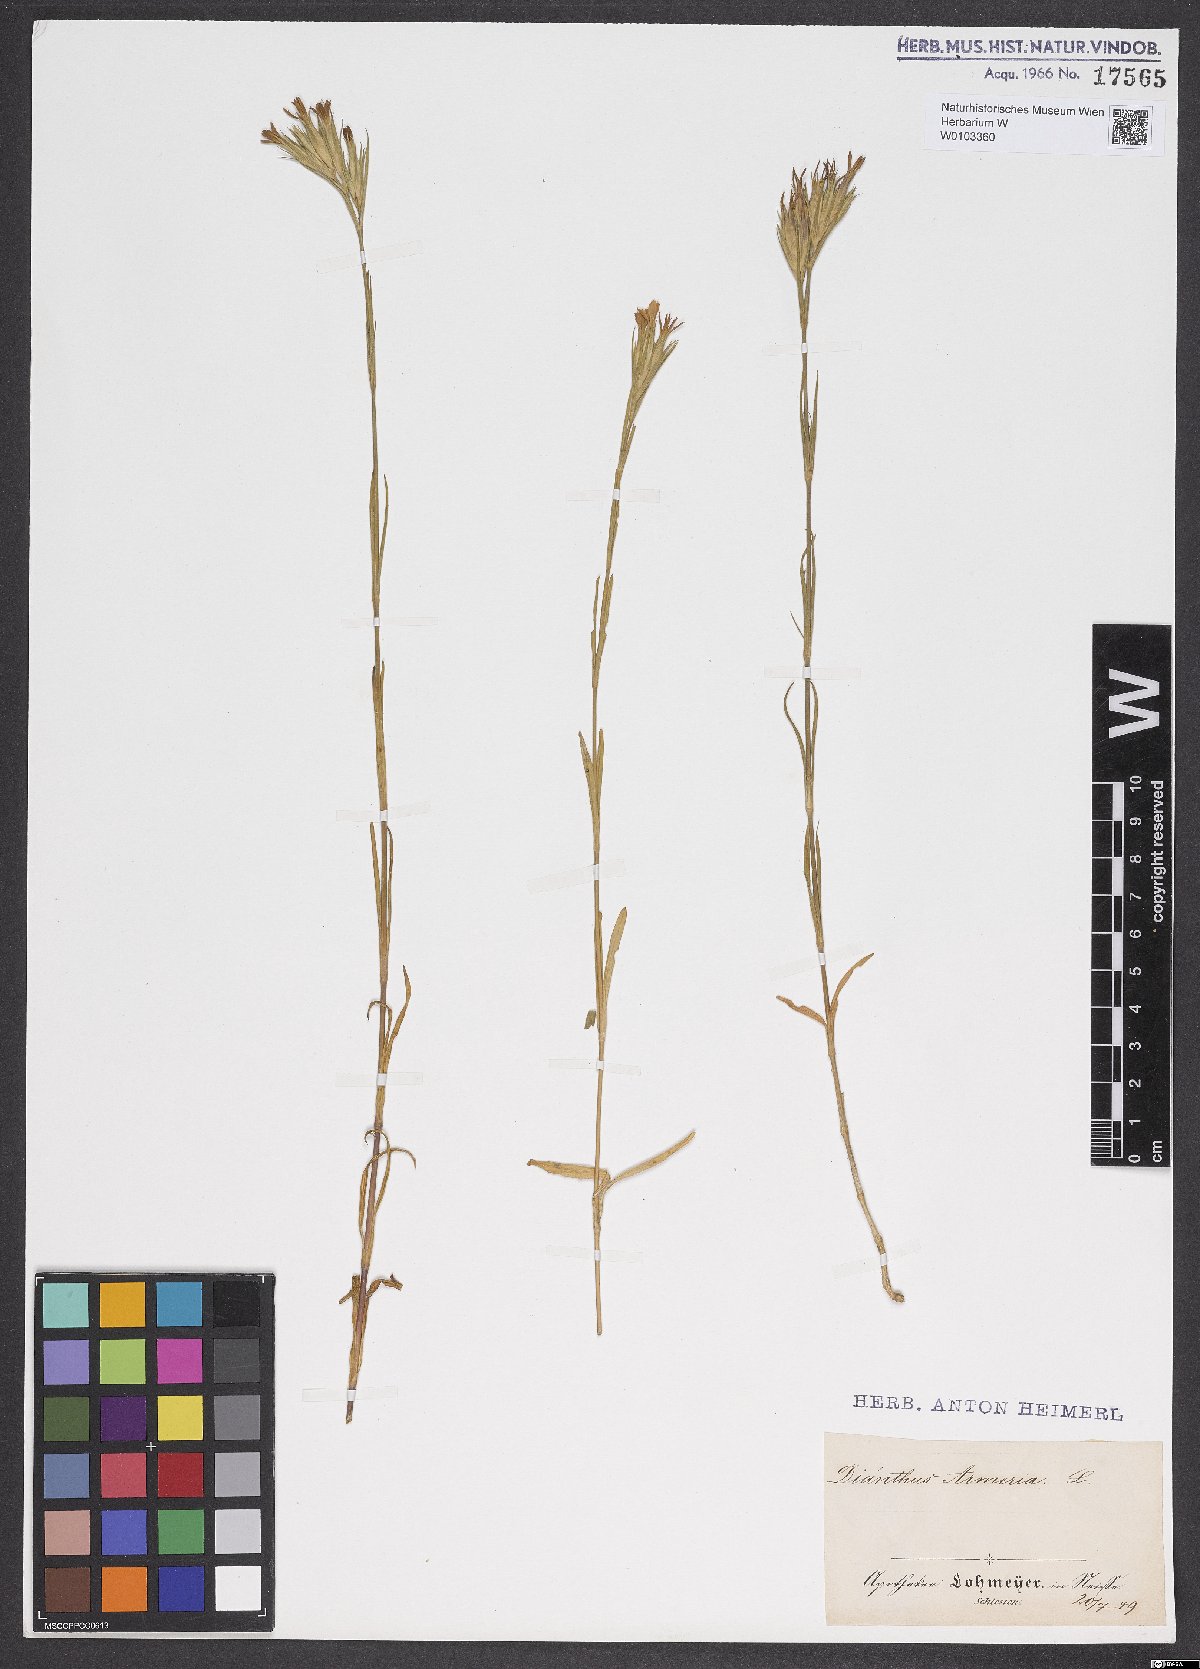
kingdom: Plantae
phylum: Tracheophyta
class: Magnoliopsida
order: Caryophyllales
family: Caryophyllaceae
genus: Dianthus
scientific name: Dianthus armeria
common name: Deptford pink
